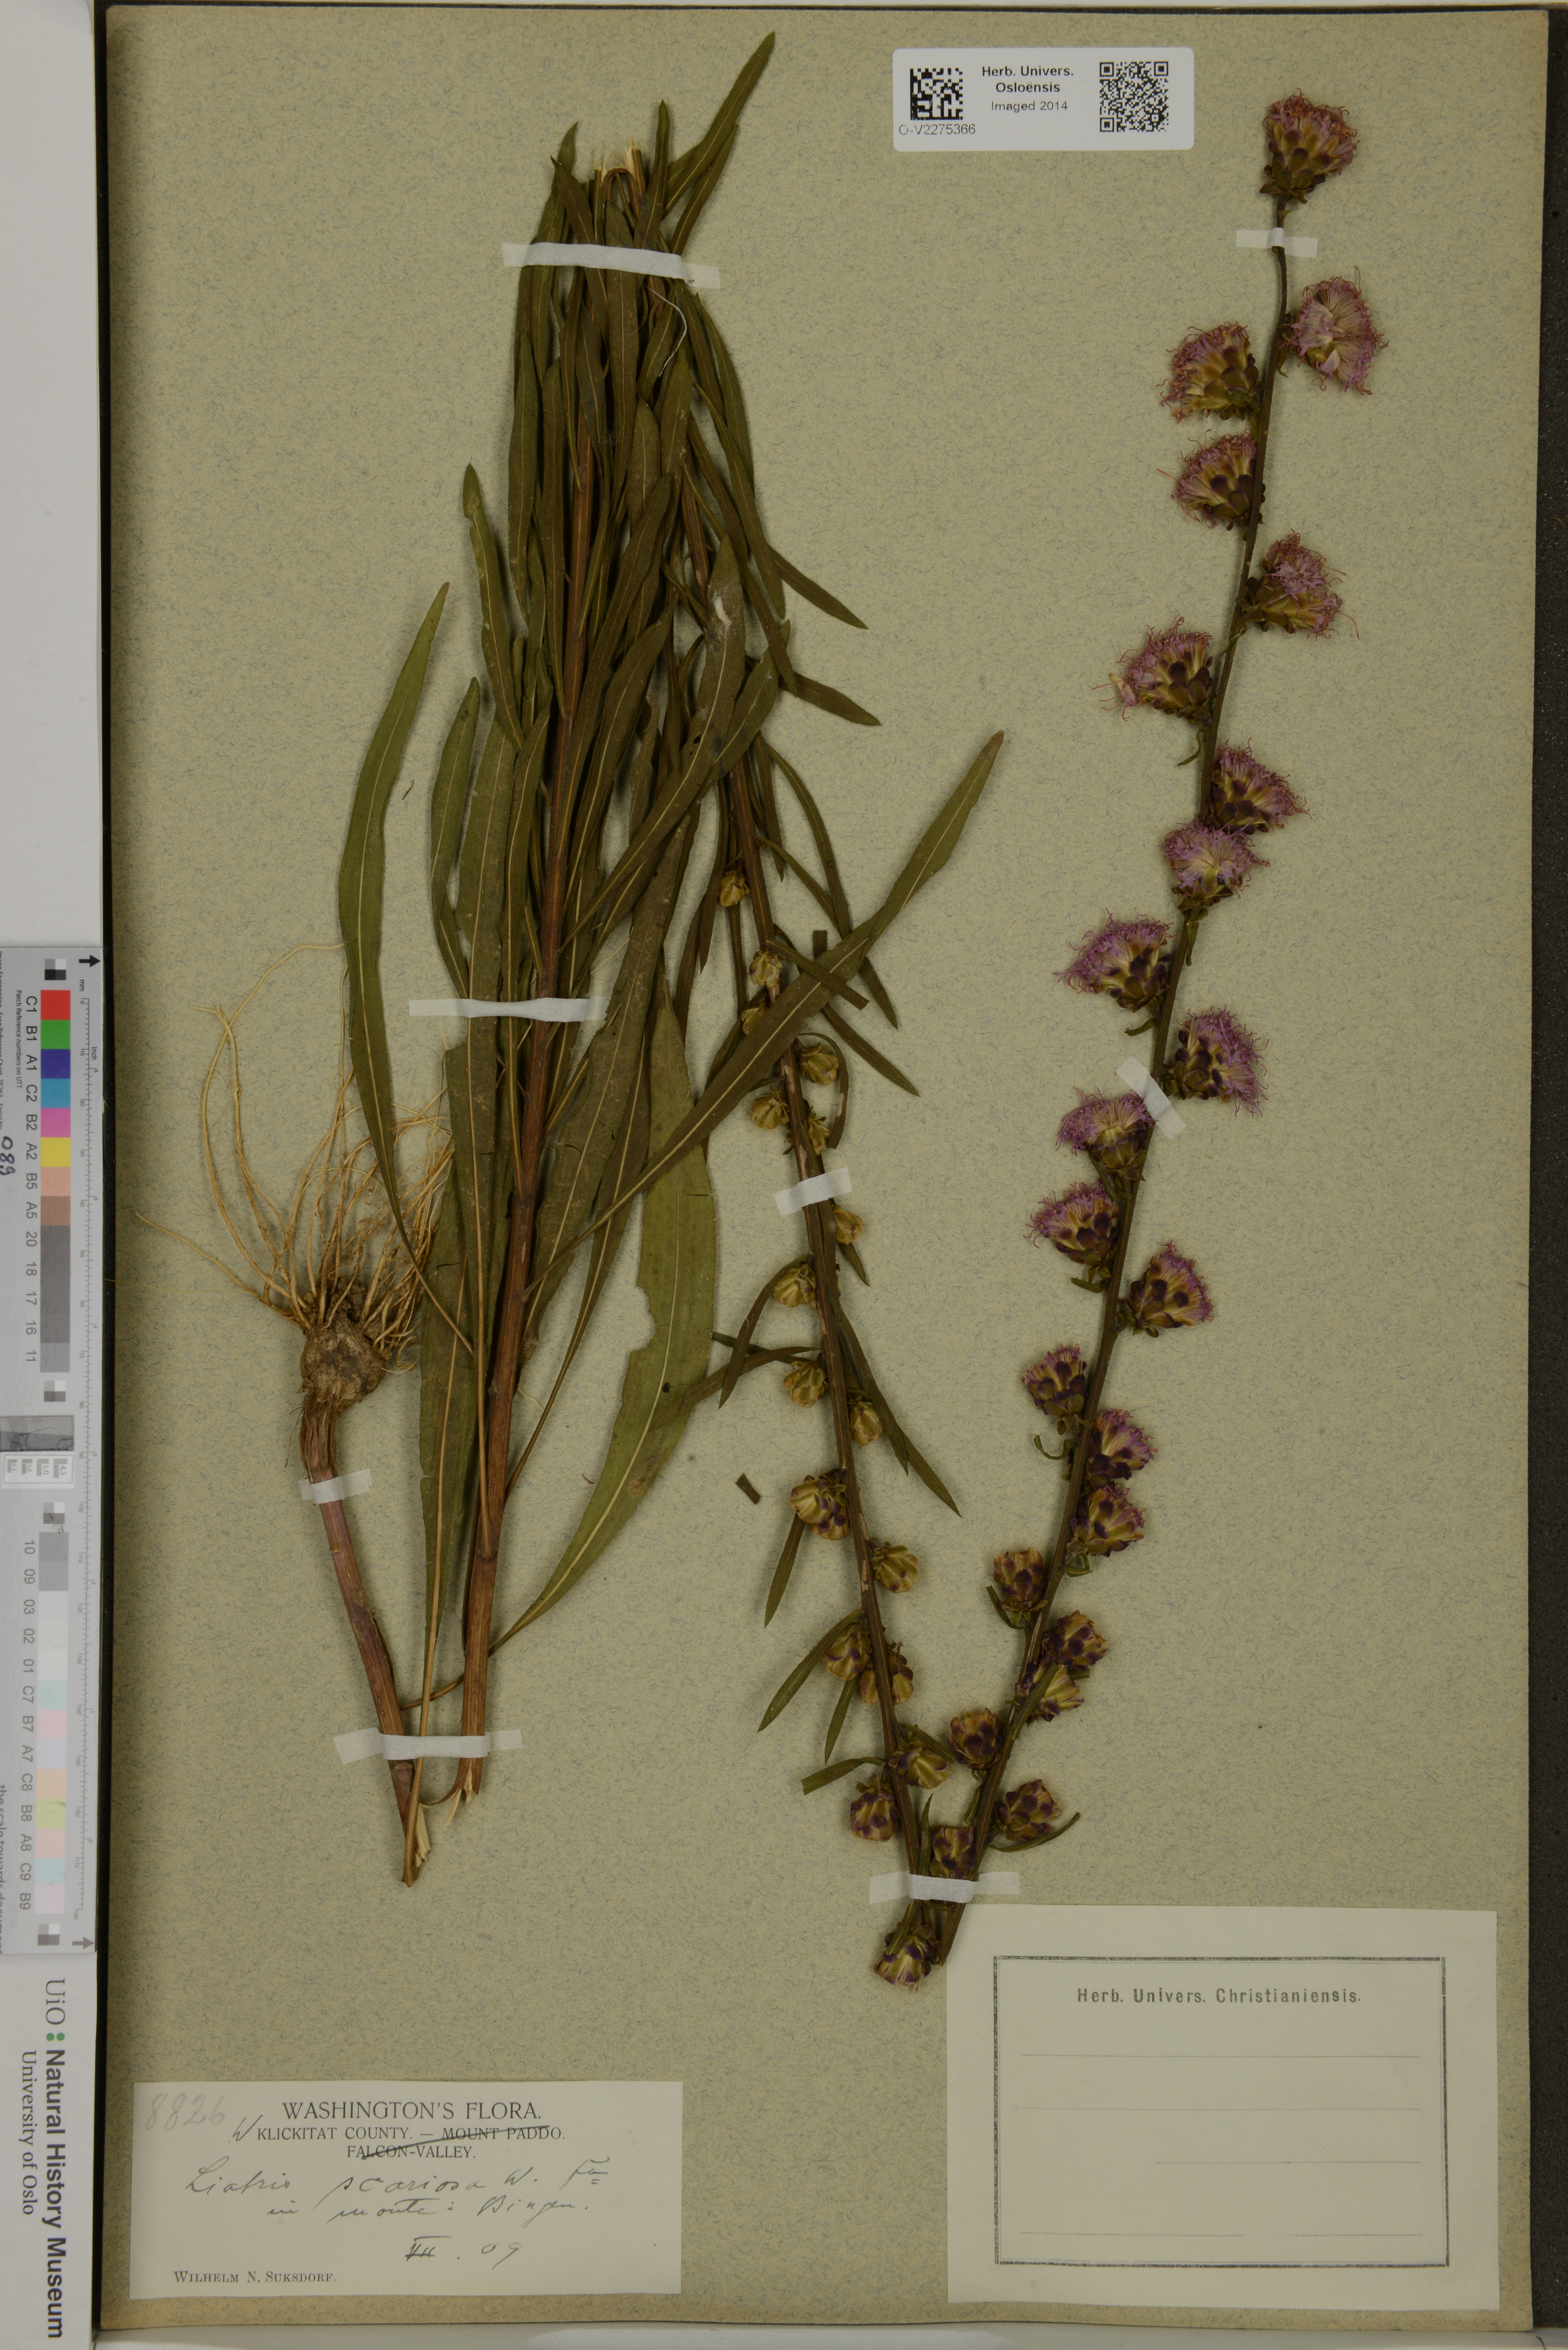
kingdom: Plantae
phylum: Tracheophyta
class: Magnoliopsida
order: Asterales
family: Asteraceae
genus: Liatris
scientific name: Liatris scariosa
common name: Northern gayfeather
